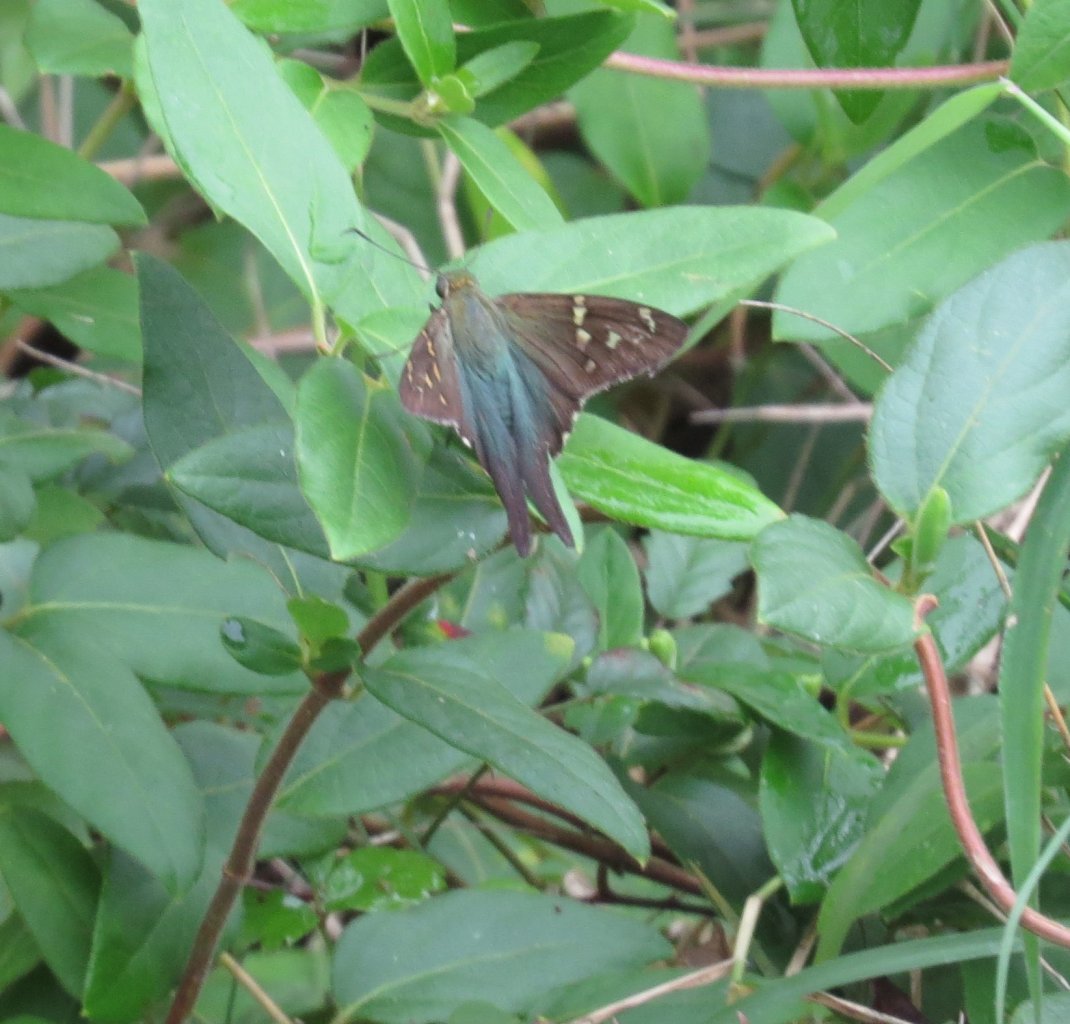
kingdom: Animalia
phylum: Arthropoda
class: Insecta
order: Lepidoptera
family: Hesperiidae
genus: Urbanus
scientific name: Urbanus proteus
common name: Long-tailed Skipper
